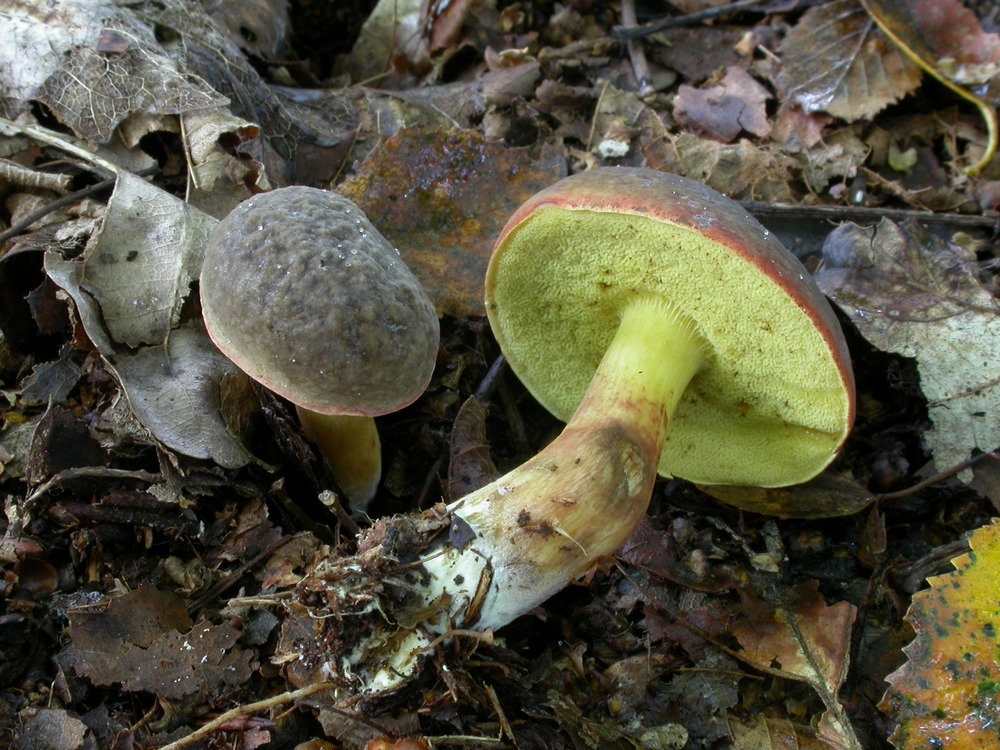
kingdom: Fungi
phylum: Basidiomycota
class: Agaricomycetes
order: Boletales
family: Boletaceae
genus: Xerocomellus
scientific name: Xerocomellus pruinatus
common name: dugget rørhat
